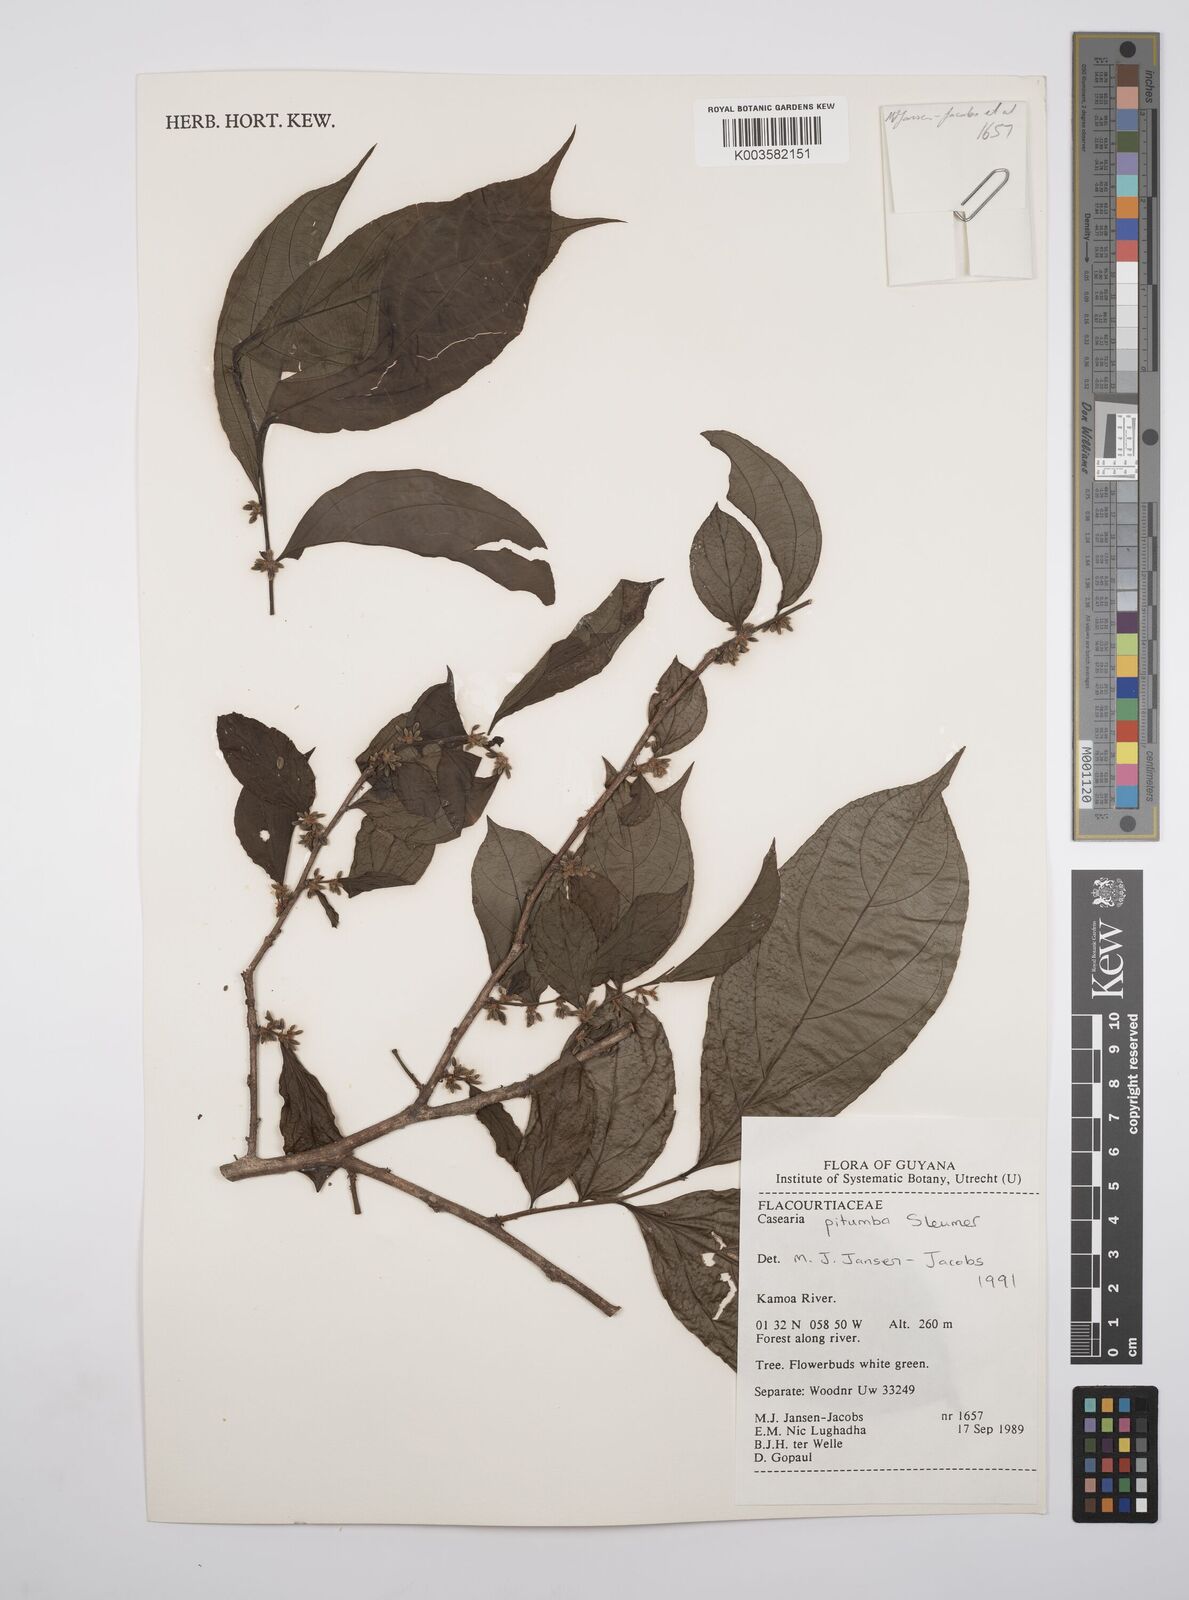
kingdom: Plantae
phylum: Tracheophyta
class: Magnoliopsida
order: Malpighiales
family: Salicaceae
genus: Casearia
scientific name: Casearia pitumba
